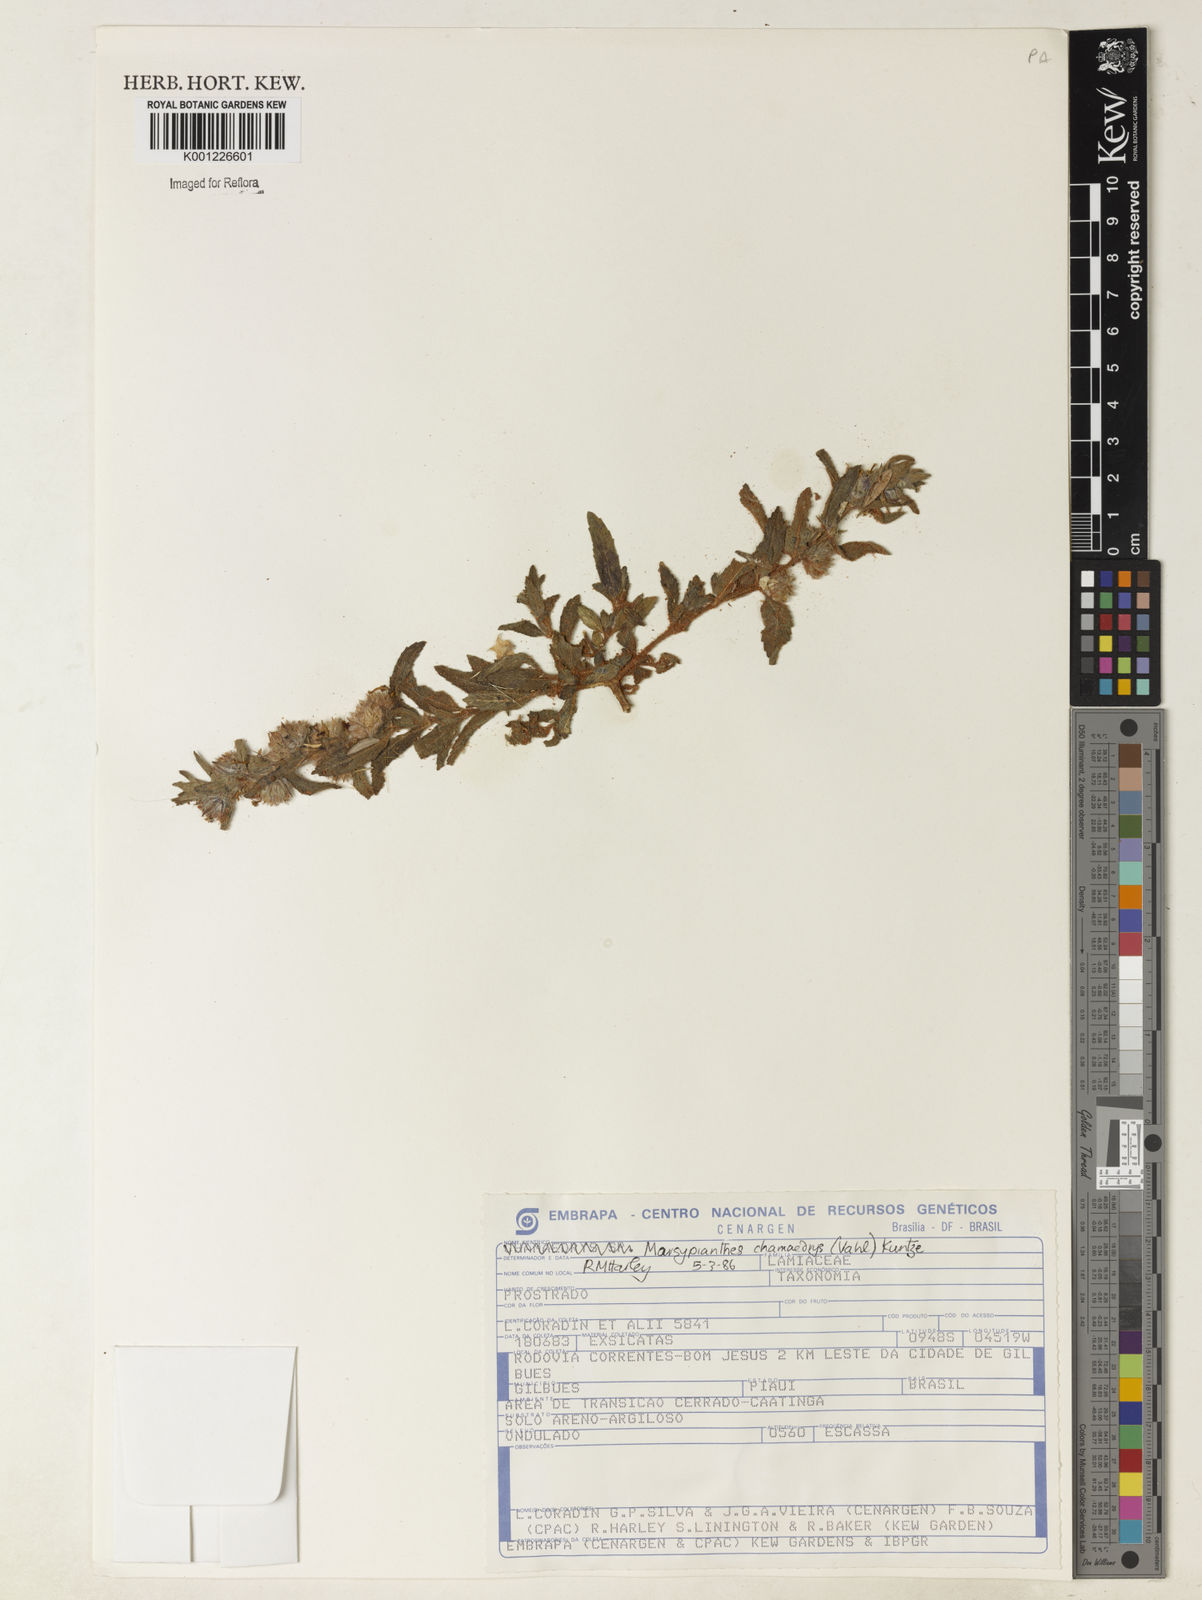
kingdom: Plantae
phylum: Tracheophyta
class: Magnoliopsida
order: Lamiales
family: Lamiaceae
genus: Marsypianthes
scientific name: Marsypianthes chamaedrys
